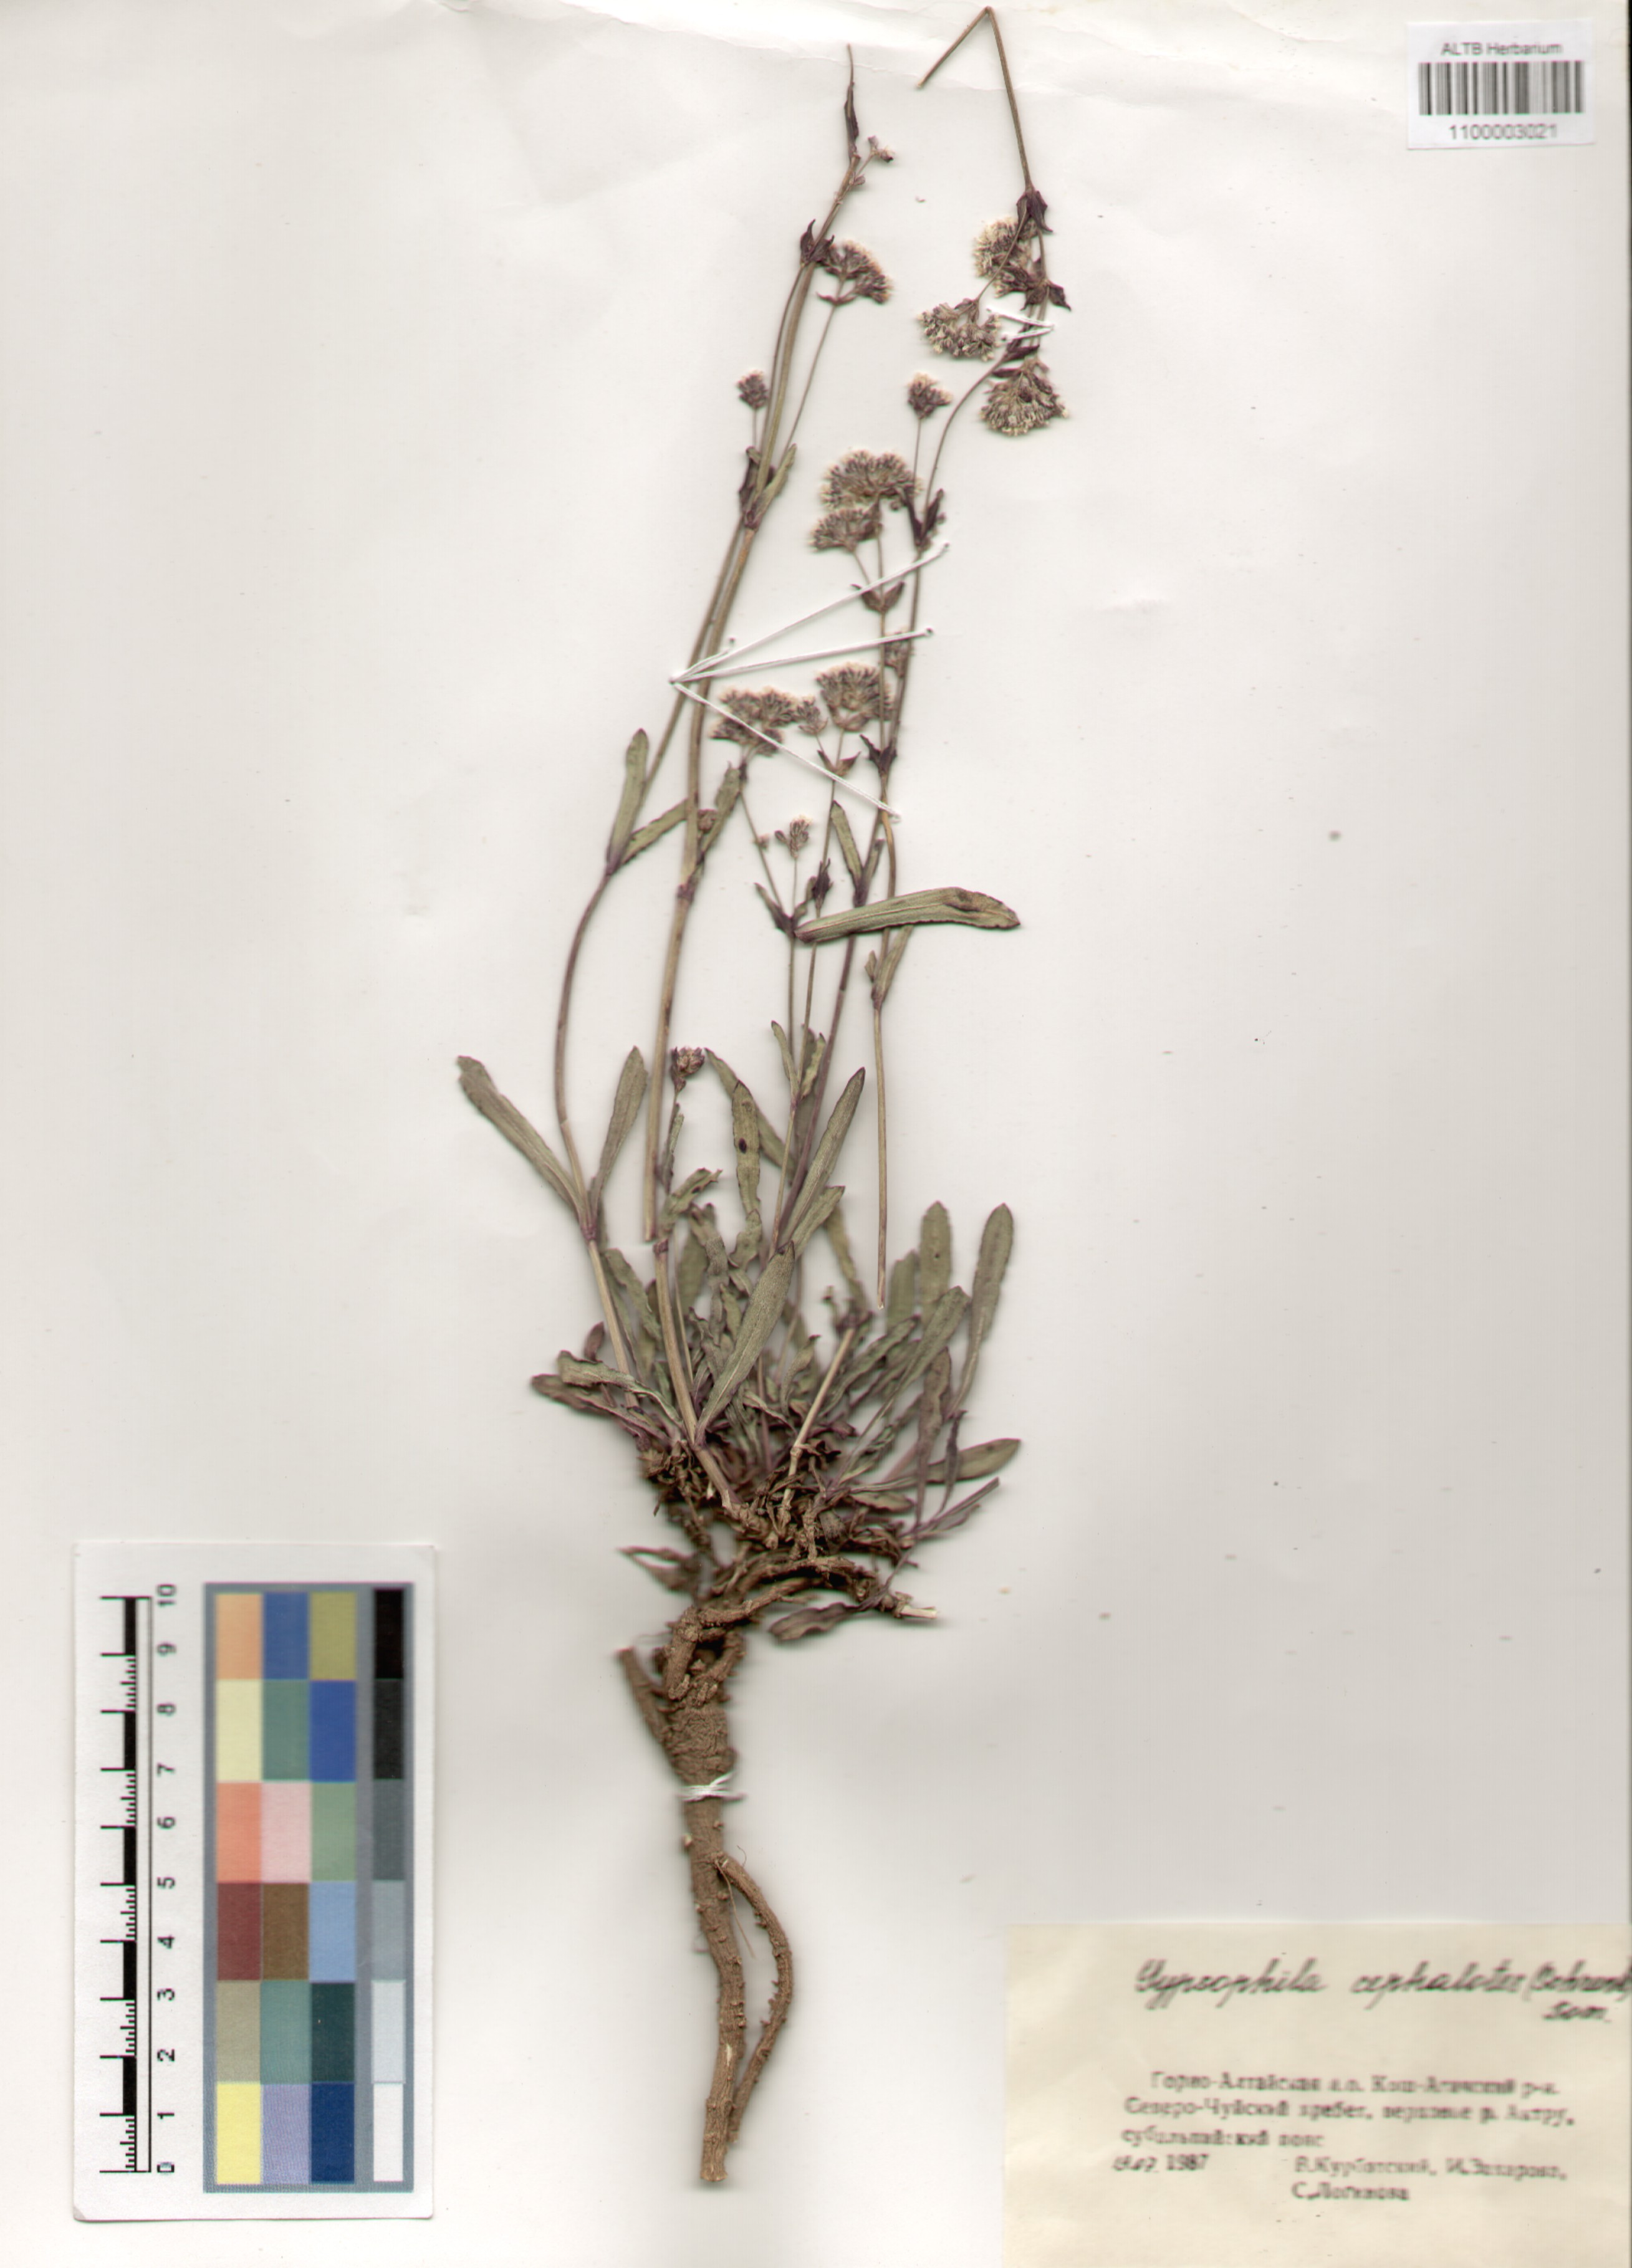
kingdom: Plantae
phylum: Tracheophyta
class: Magnoliopsida
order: Caryophyllales
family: Caryophyllaceae
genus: Gypsophila
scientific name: Gypsophila cephalotes
